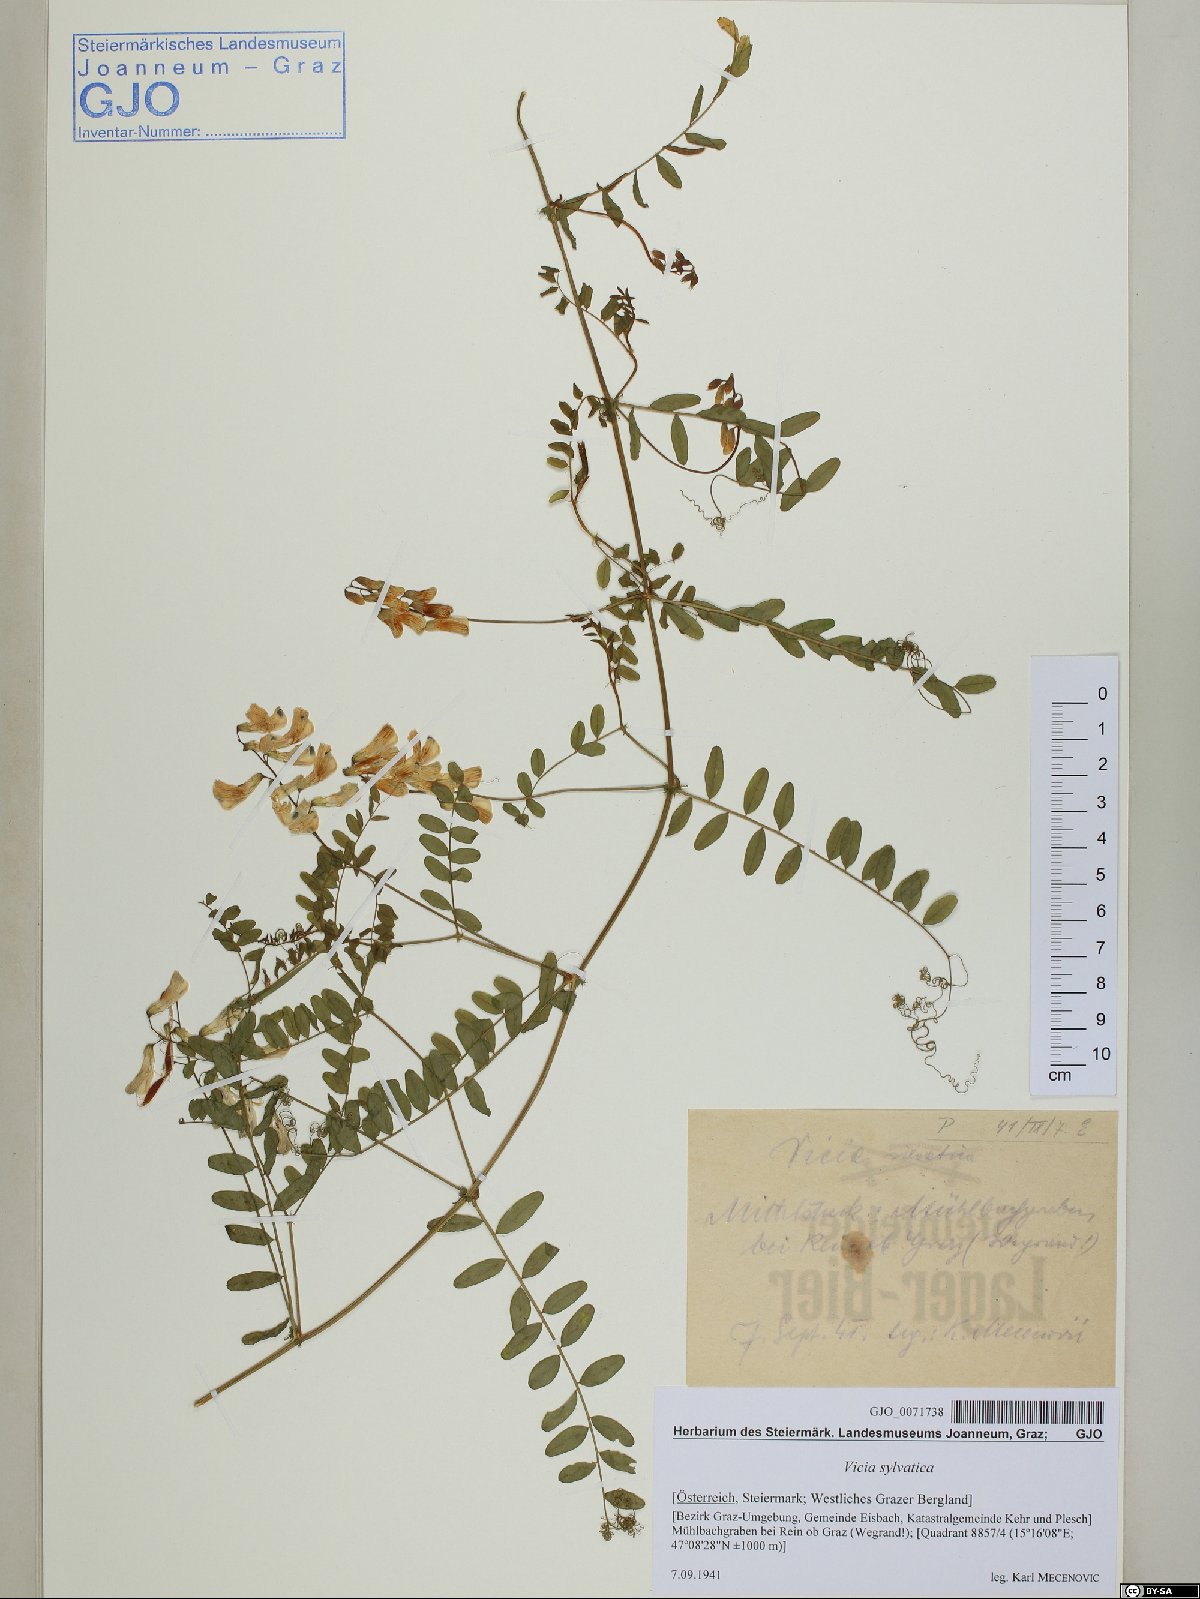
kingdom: Plantae
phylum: Tracheophyta
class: Magnoliopsida
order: Fabales
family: Fabaceae
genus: Vicia
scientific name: Vicia sylvatica
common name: Wood vetch
